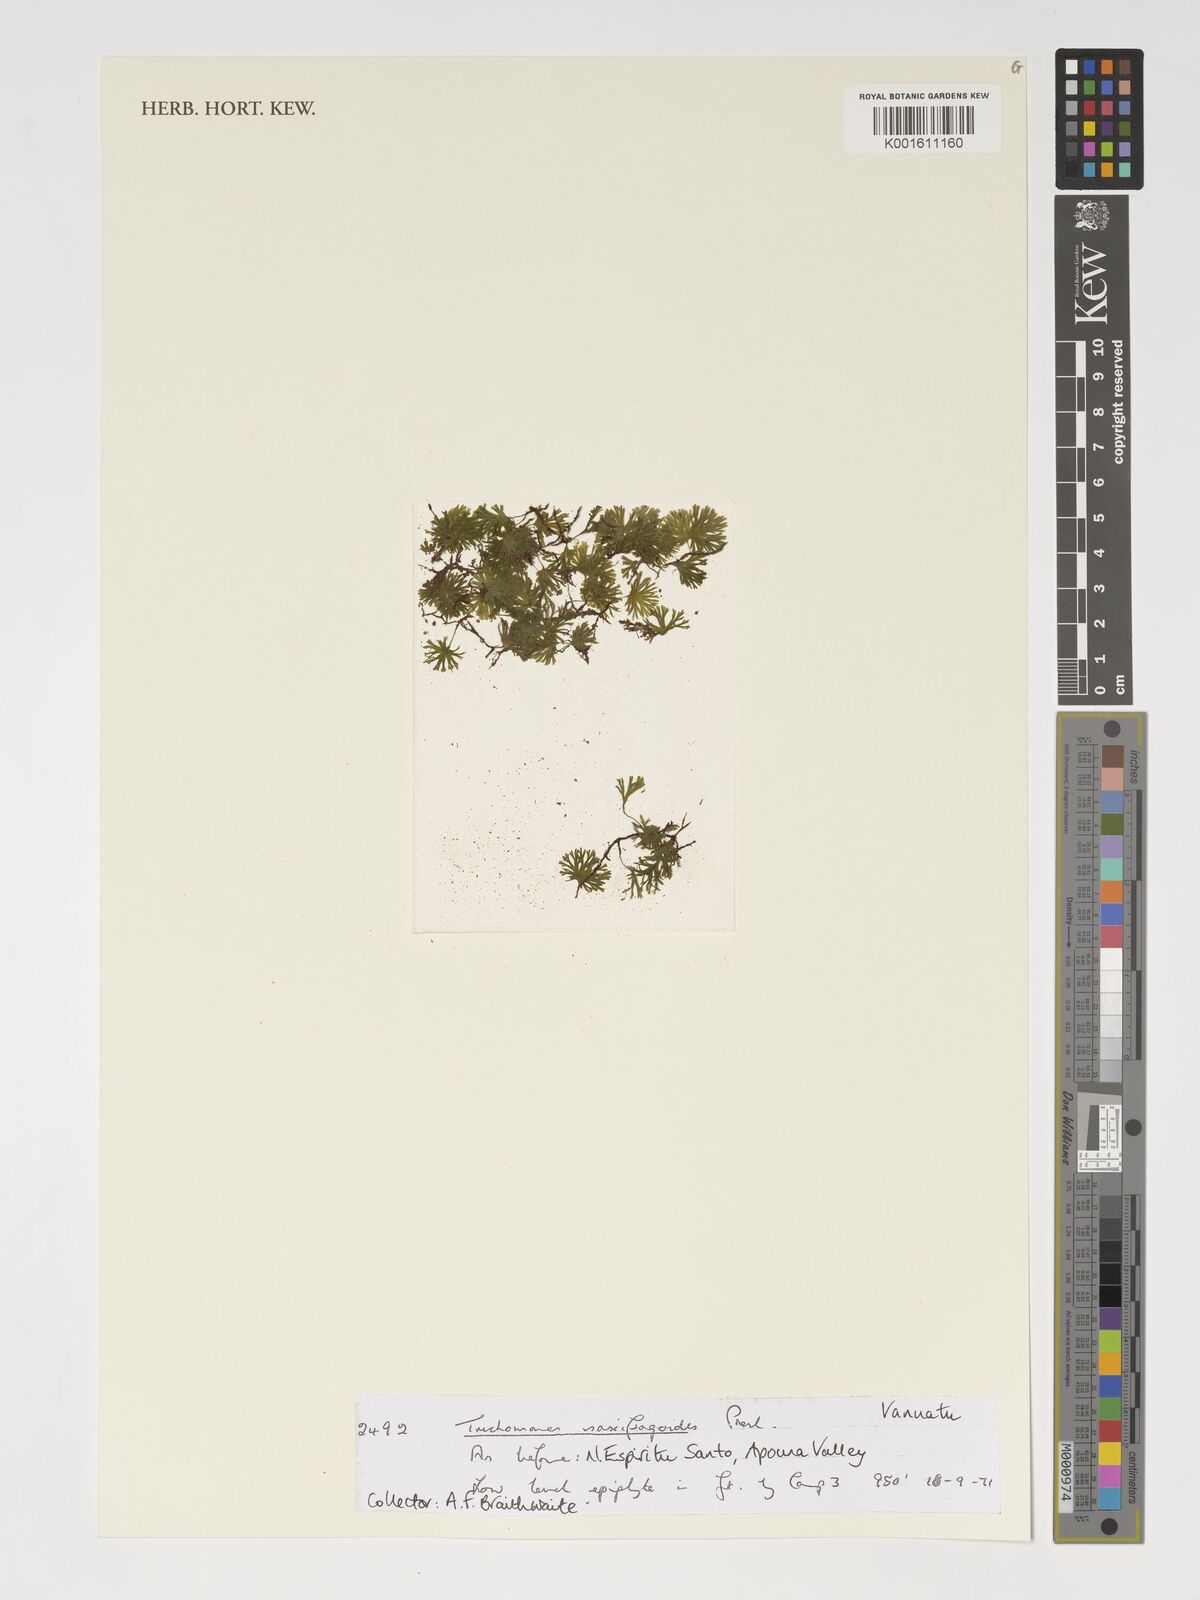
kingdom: Plantae
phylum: Tracheophyta
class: Polypodiopsida
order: Hymenophyllales
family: Hymenophyllaceae
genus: Crepidomanes
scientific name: Crepidomanes saxifragoides
